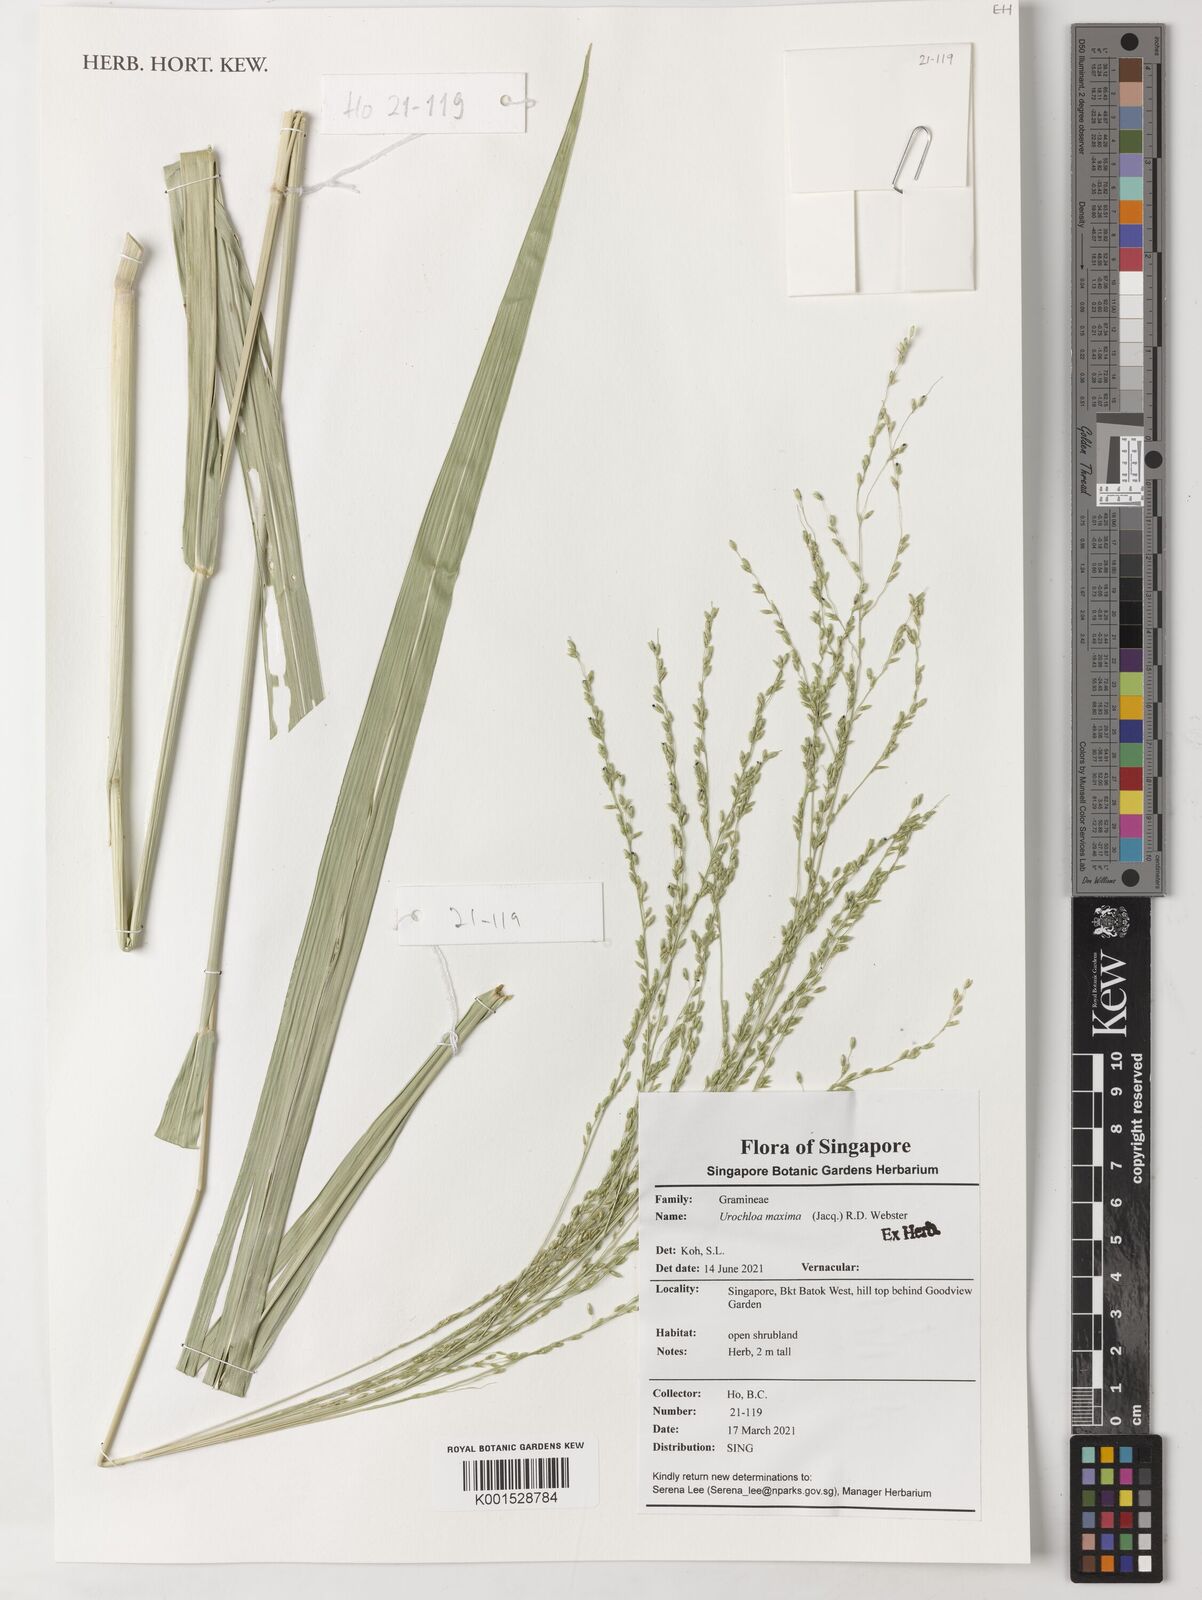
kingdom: Plantae
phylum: Tracheophyta
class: Liliopsida
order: Poales
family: Poaceae
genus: Megathyrsus
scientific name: Megathyrsus maximus
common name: Guineagrass
